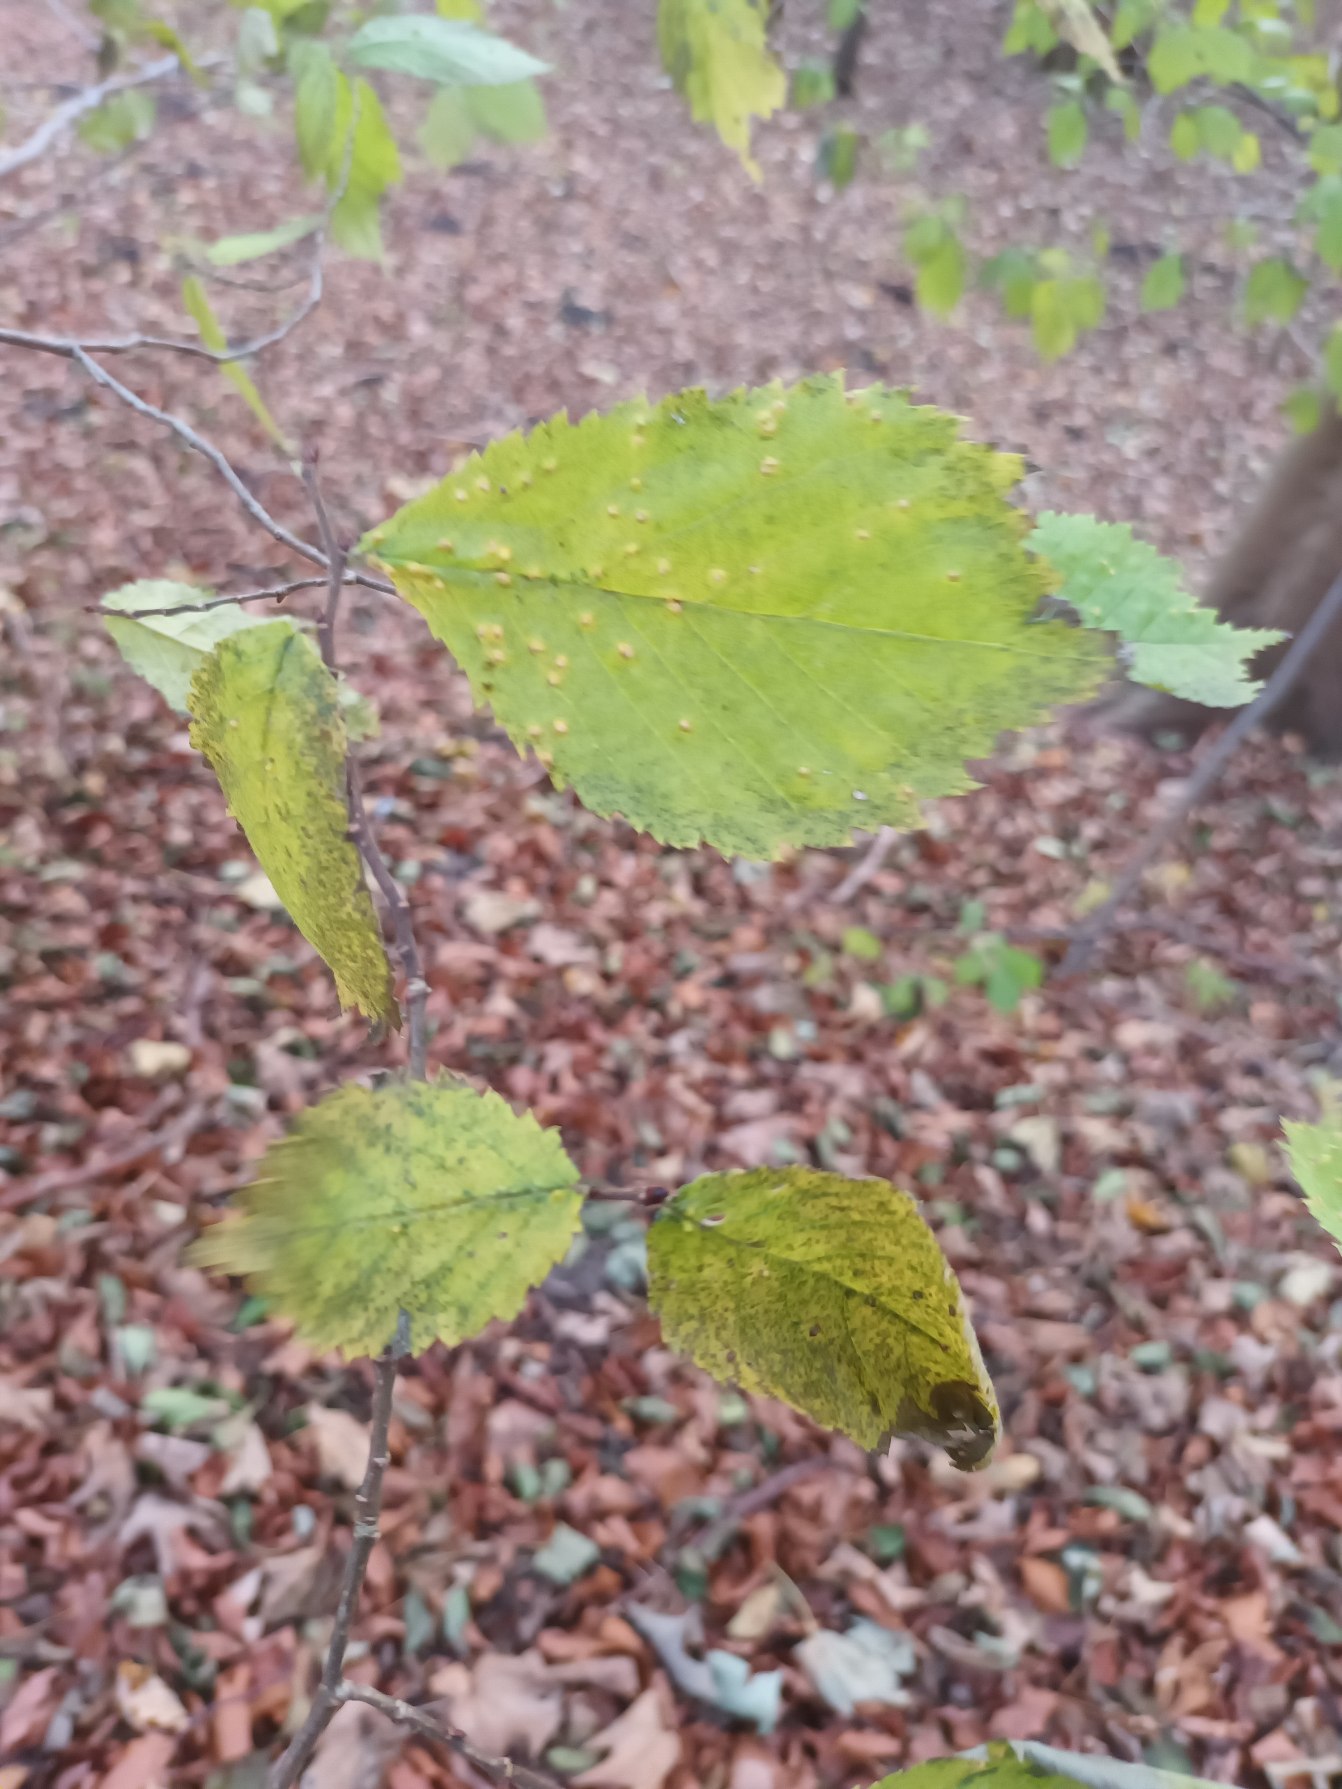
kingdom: Plantae
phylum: Tracheophyta
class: Magnoliopsida
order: Rosales
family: Ulmaceae
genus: Ulmus
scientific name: Ulmus
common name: Elmeslægten
